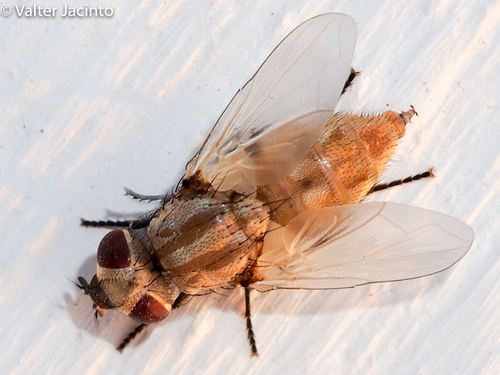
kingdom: Animalia
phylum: Arthropoda
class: Insecta
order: Diptera
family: Muscidae
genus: Musca
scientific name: Musca sorbens
